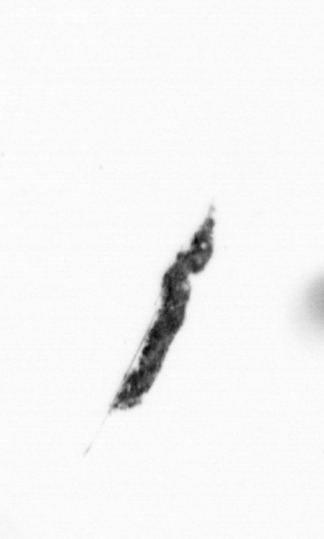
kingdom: Bacteria
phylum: Cyanobacteria
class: Cyanobacteriia
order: Cyanobacteriales
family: Microcoleaceae
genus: Trichodesmium
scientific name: Trichodesmium
